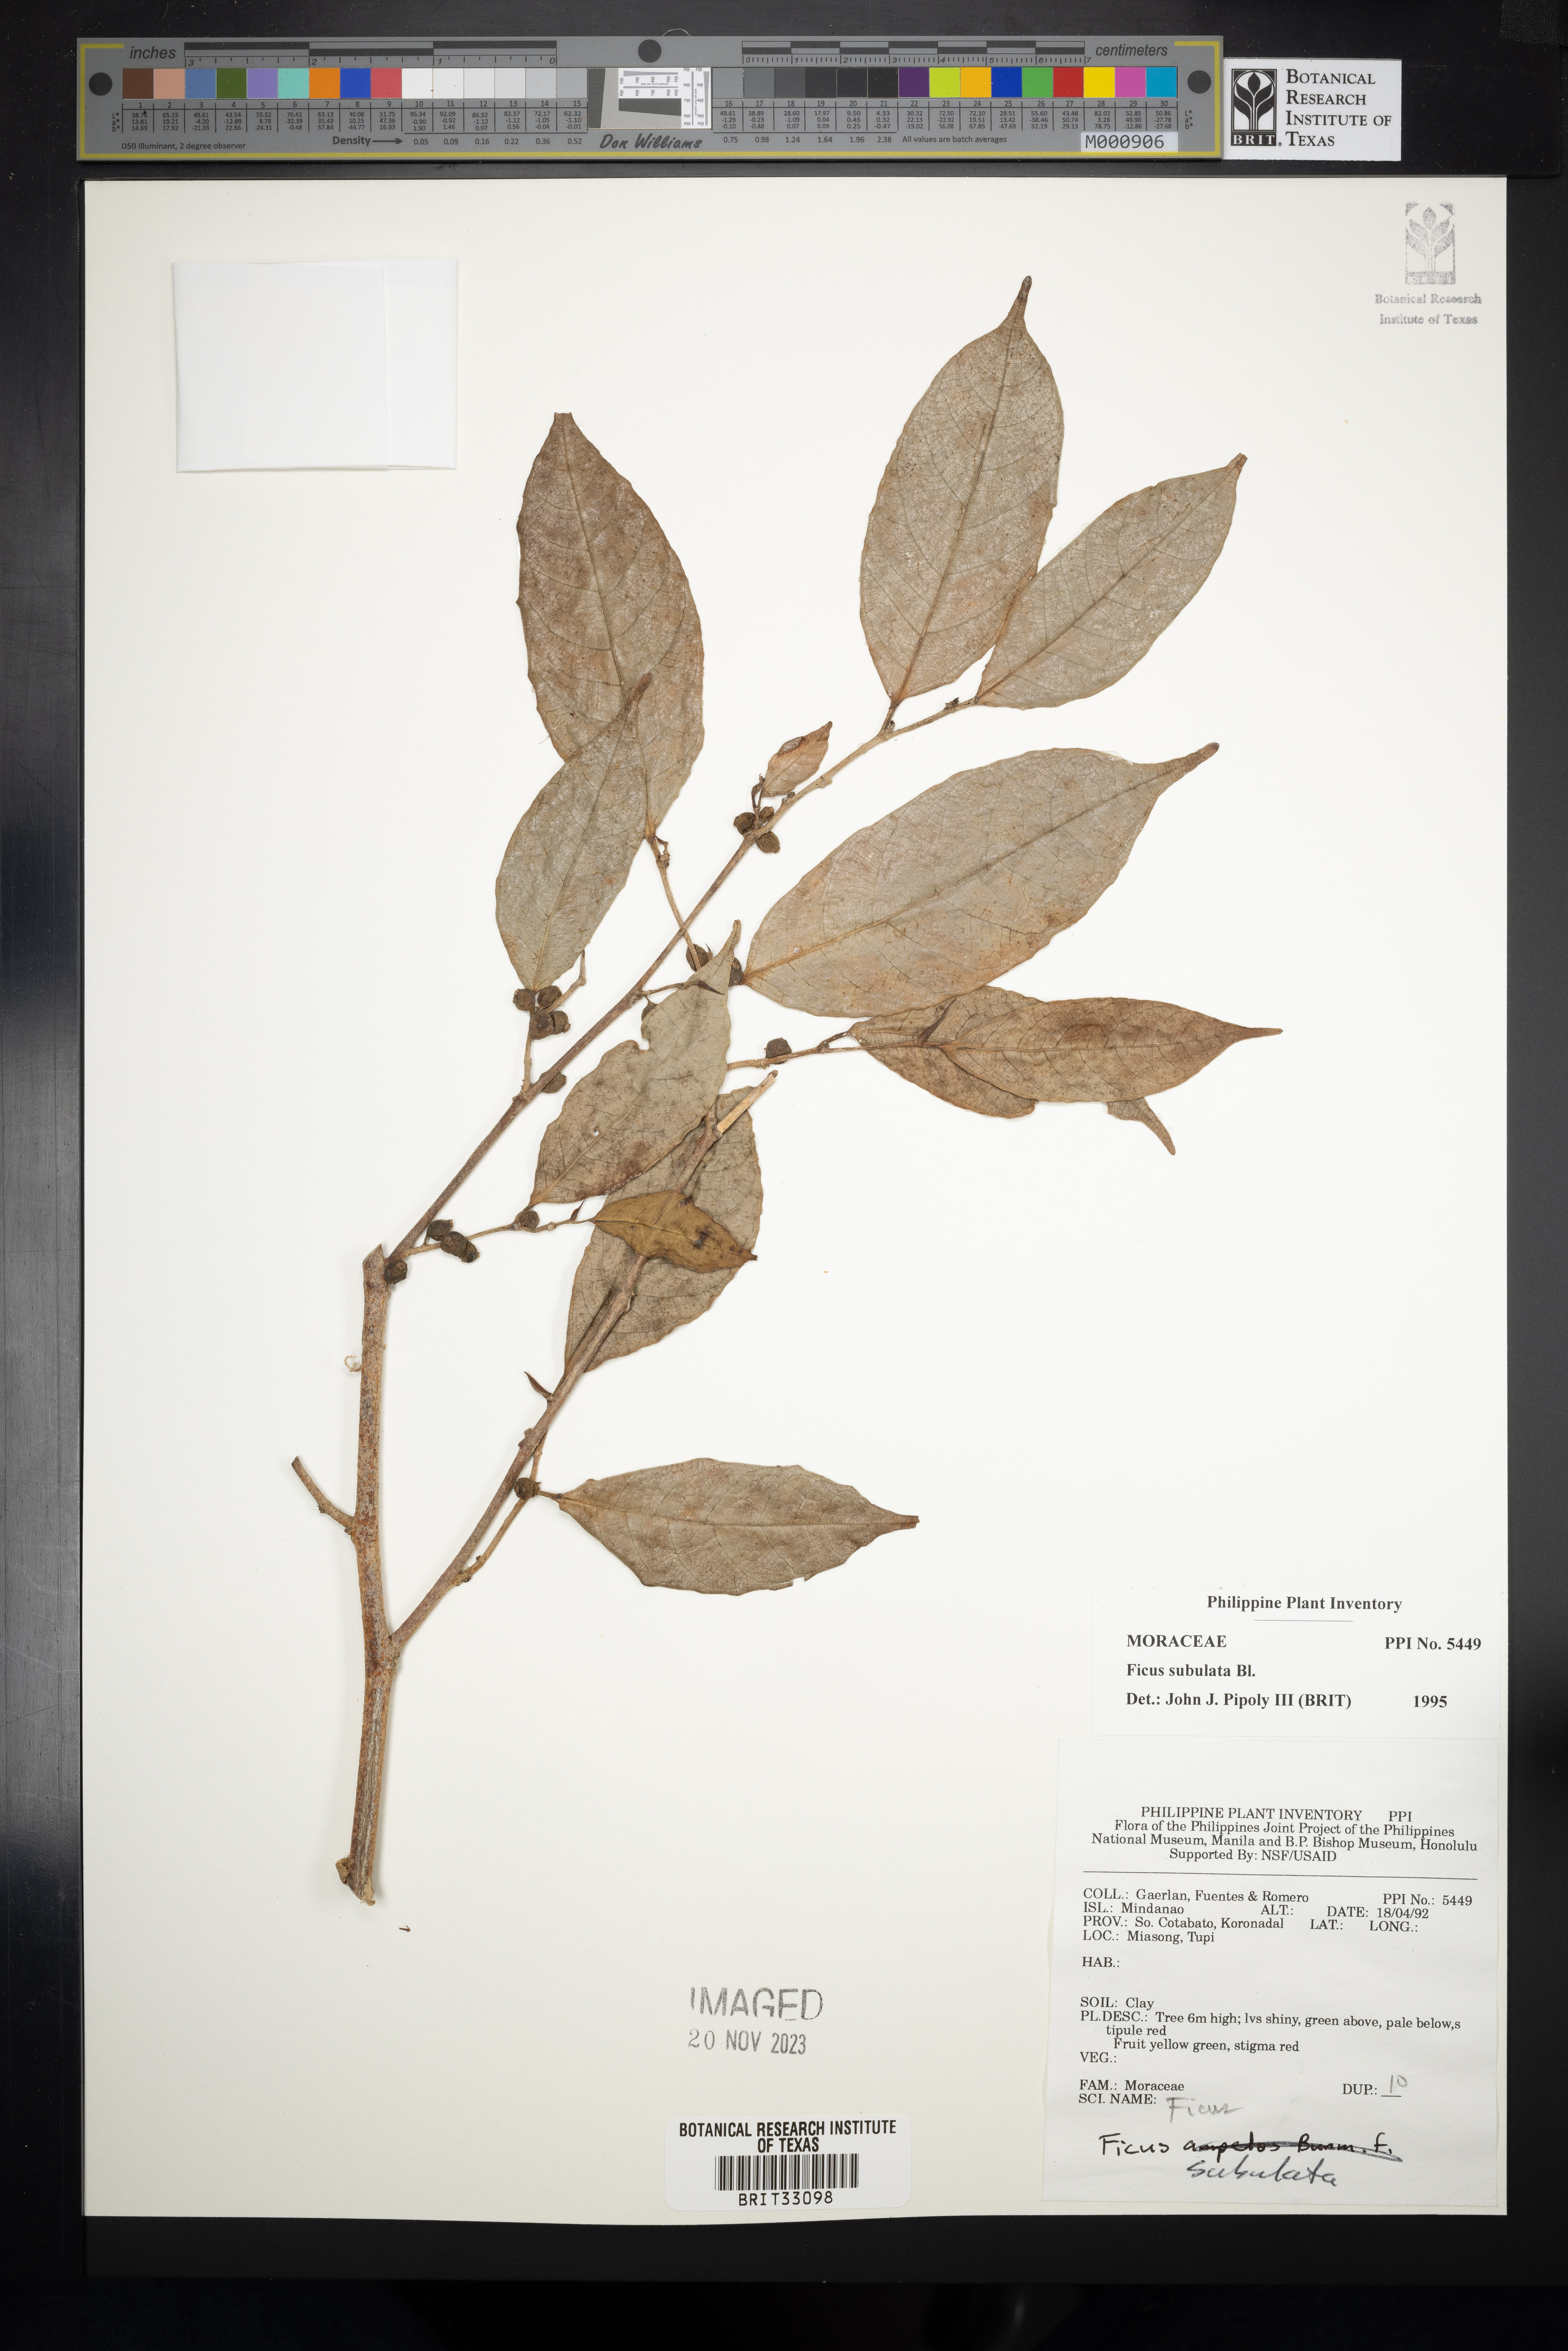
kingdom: Plantae
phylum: Tracheophyta
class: Magnoliopsida
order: Rosales
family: Moraceae
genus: Ficus
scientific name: Ficus subulata
